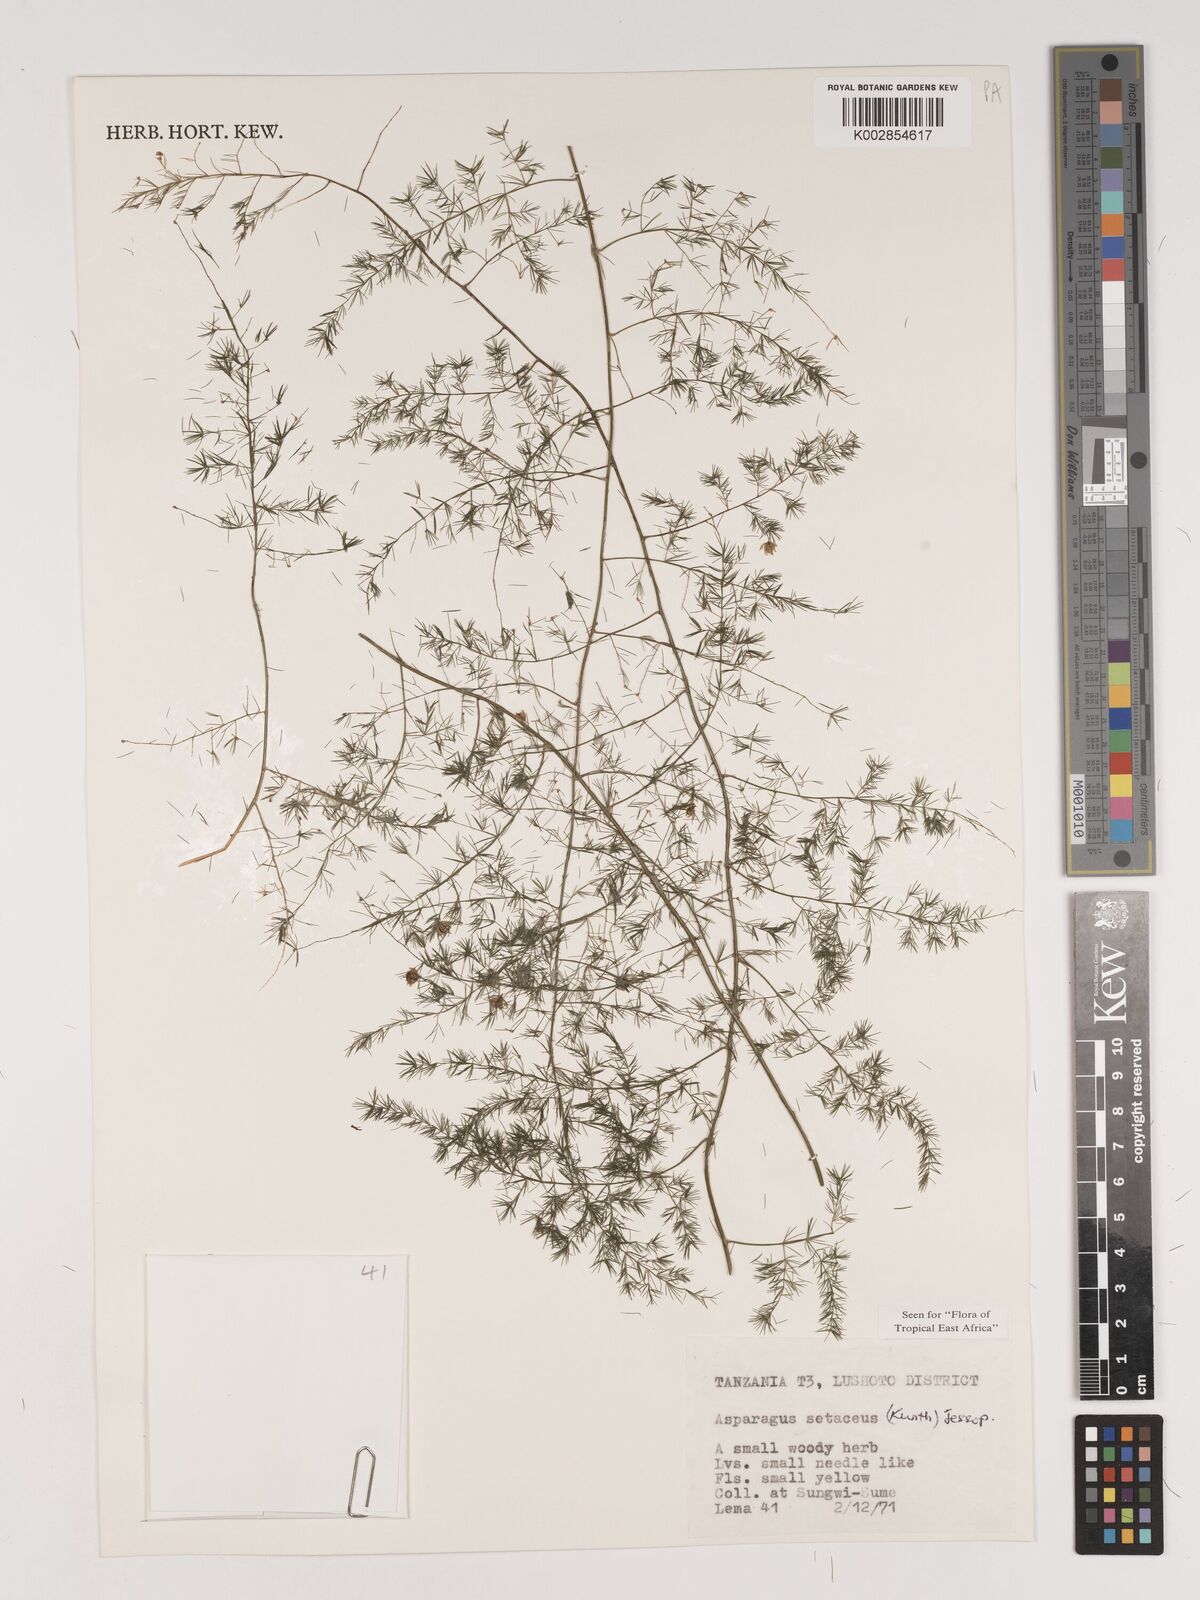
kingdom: Plantae
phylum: Tracheophyta
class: Liliopsida
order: Asparagales
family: Asparagaceae
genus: Asparagus
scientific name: Asparagus setaceus
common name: Common asparagus fern
